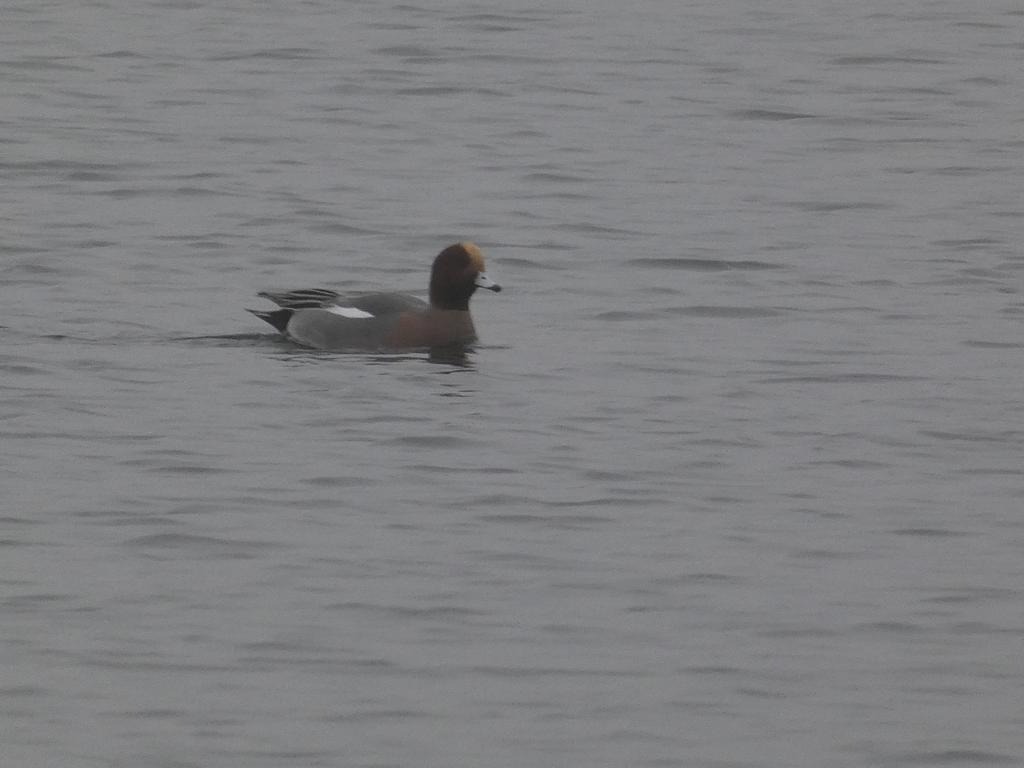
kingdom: Animalia
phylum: Chordata
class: Aves
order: Anseriformes
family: Anatidae
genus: Mareca
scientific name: Mareca penelope
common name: Pibeand
